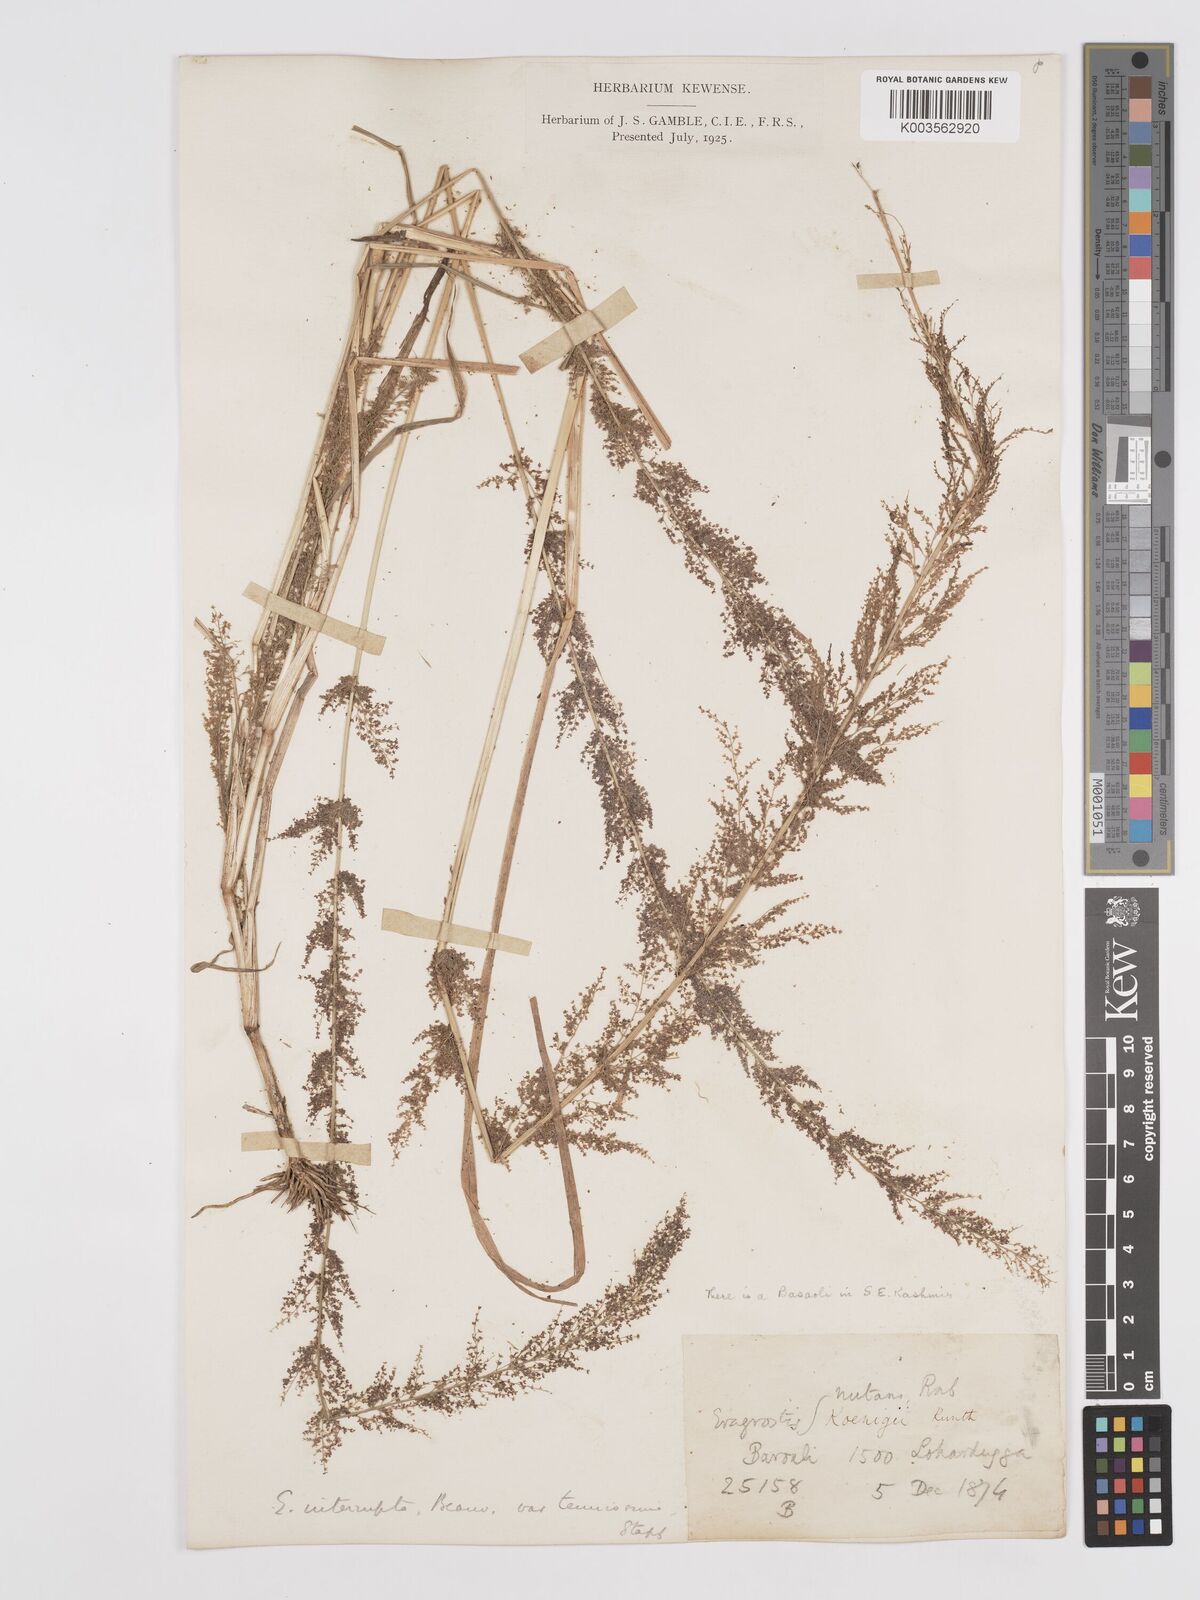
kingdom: Plantae
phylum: Tracheophyta
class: Liliopsida
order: Poales
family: Poaceae
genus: Eragrostis
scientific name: Eragrostis japonica
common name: Pond lovegrass
